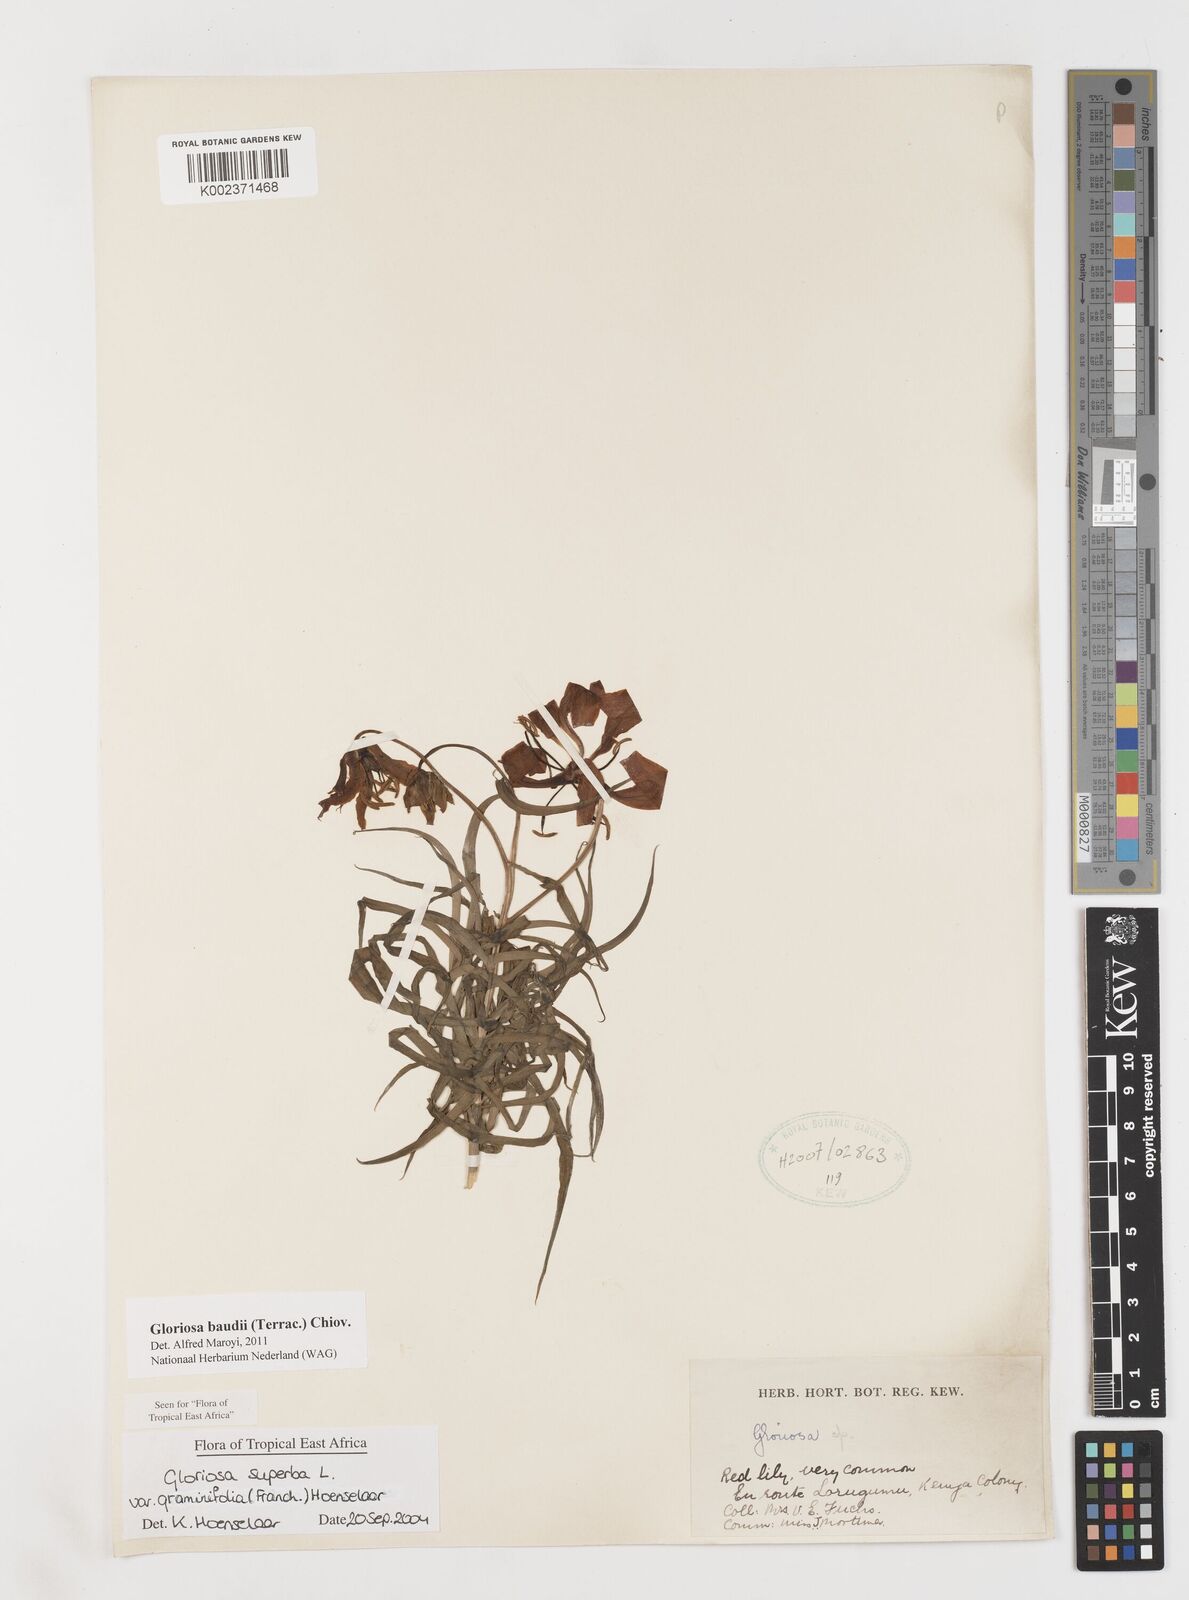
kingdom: Plantae
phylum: Tracheophyta
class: Liliopsida
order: Liliales
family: Colchicaceae
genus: Gloriosa
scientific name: Gloriosa baudii
